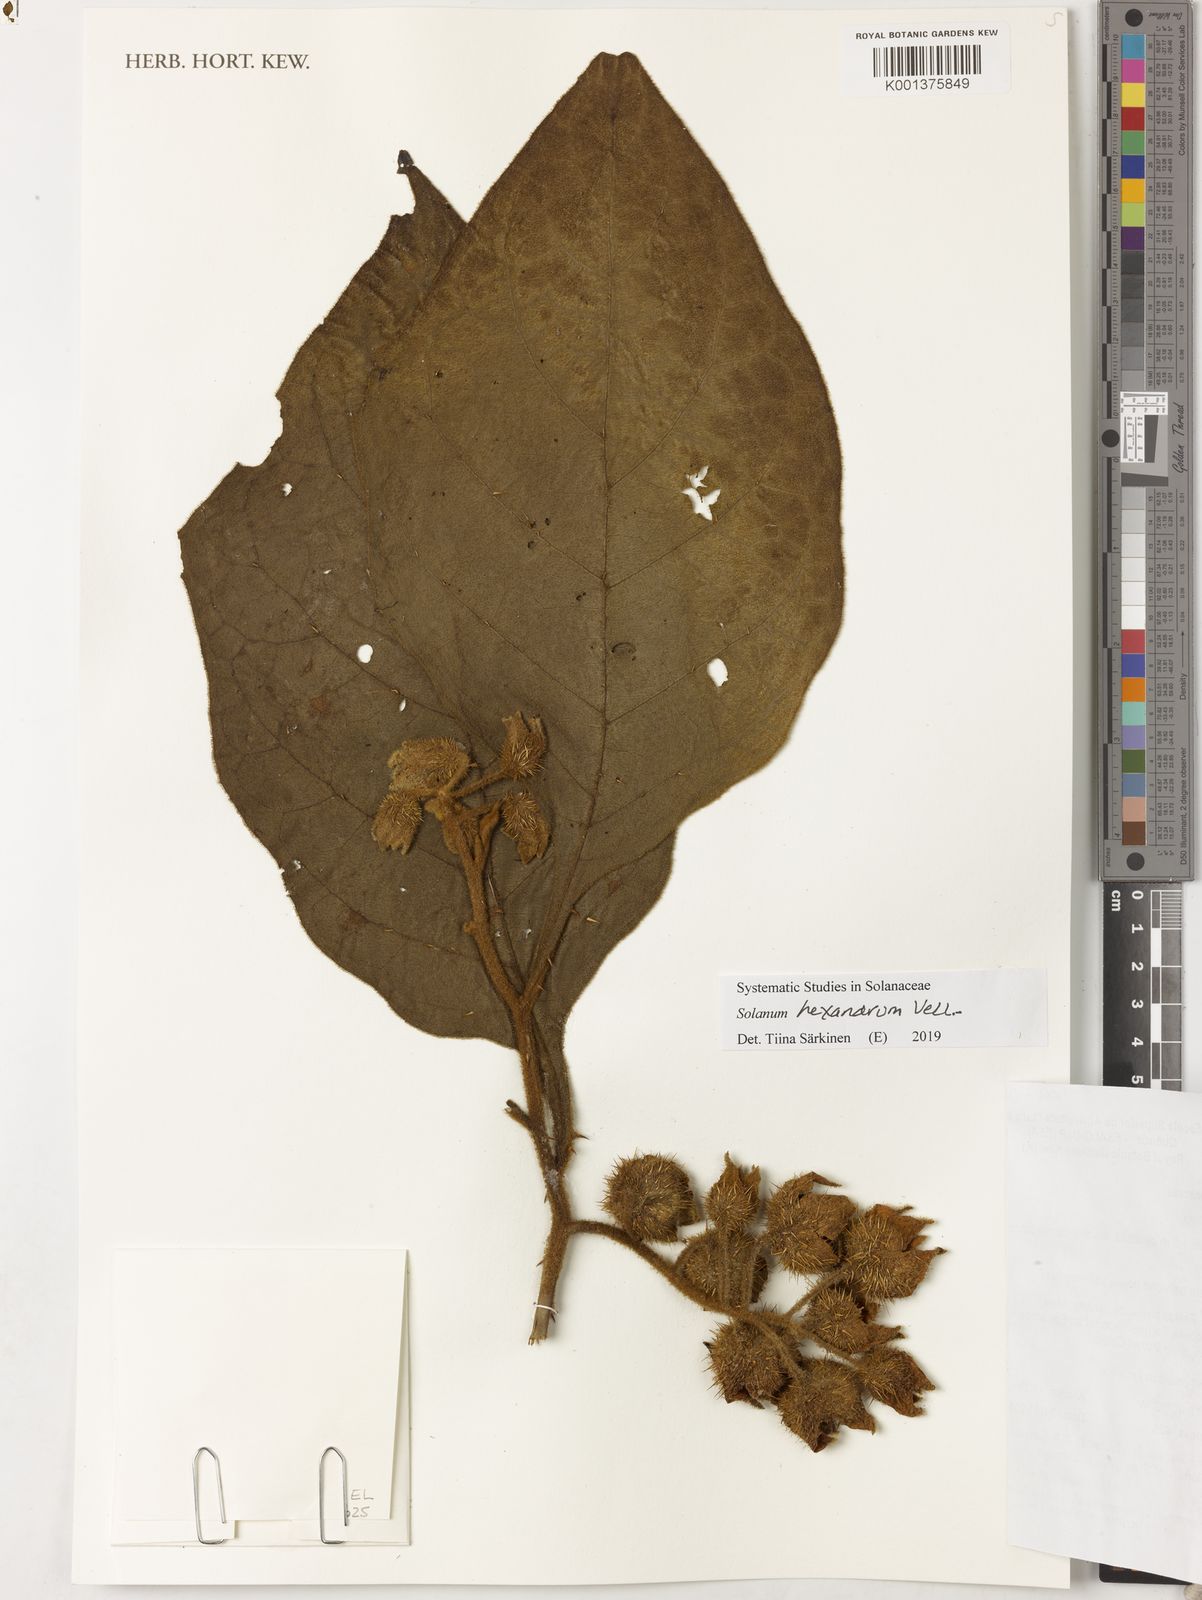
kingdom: Plantae
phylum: Tracheophyta
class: Magnoliopsida
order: Solanales
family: Solanaceae
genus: Solanum
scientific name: Solanum hexandrum
